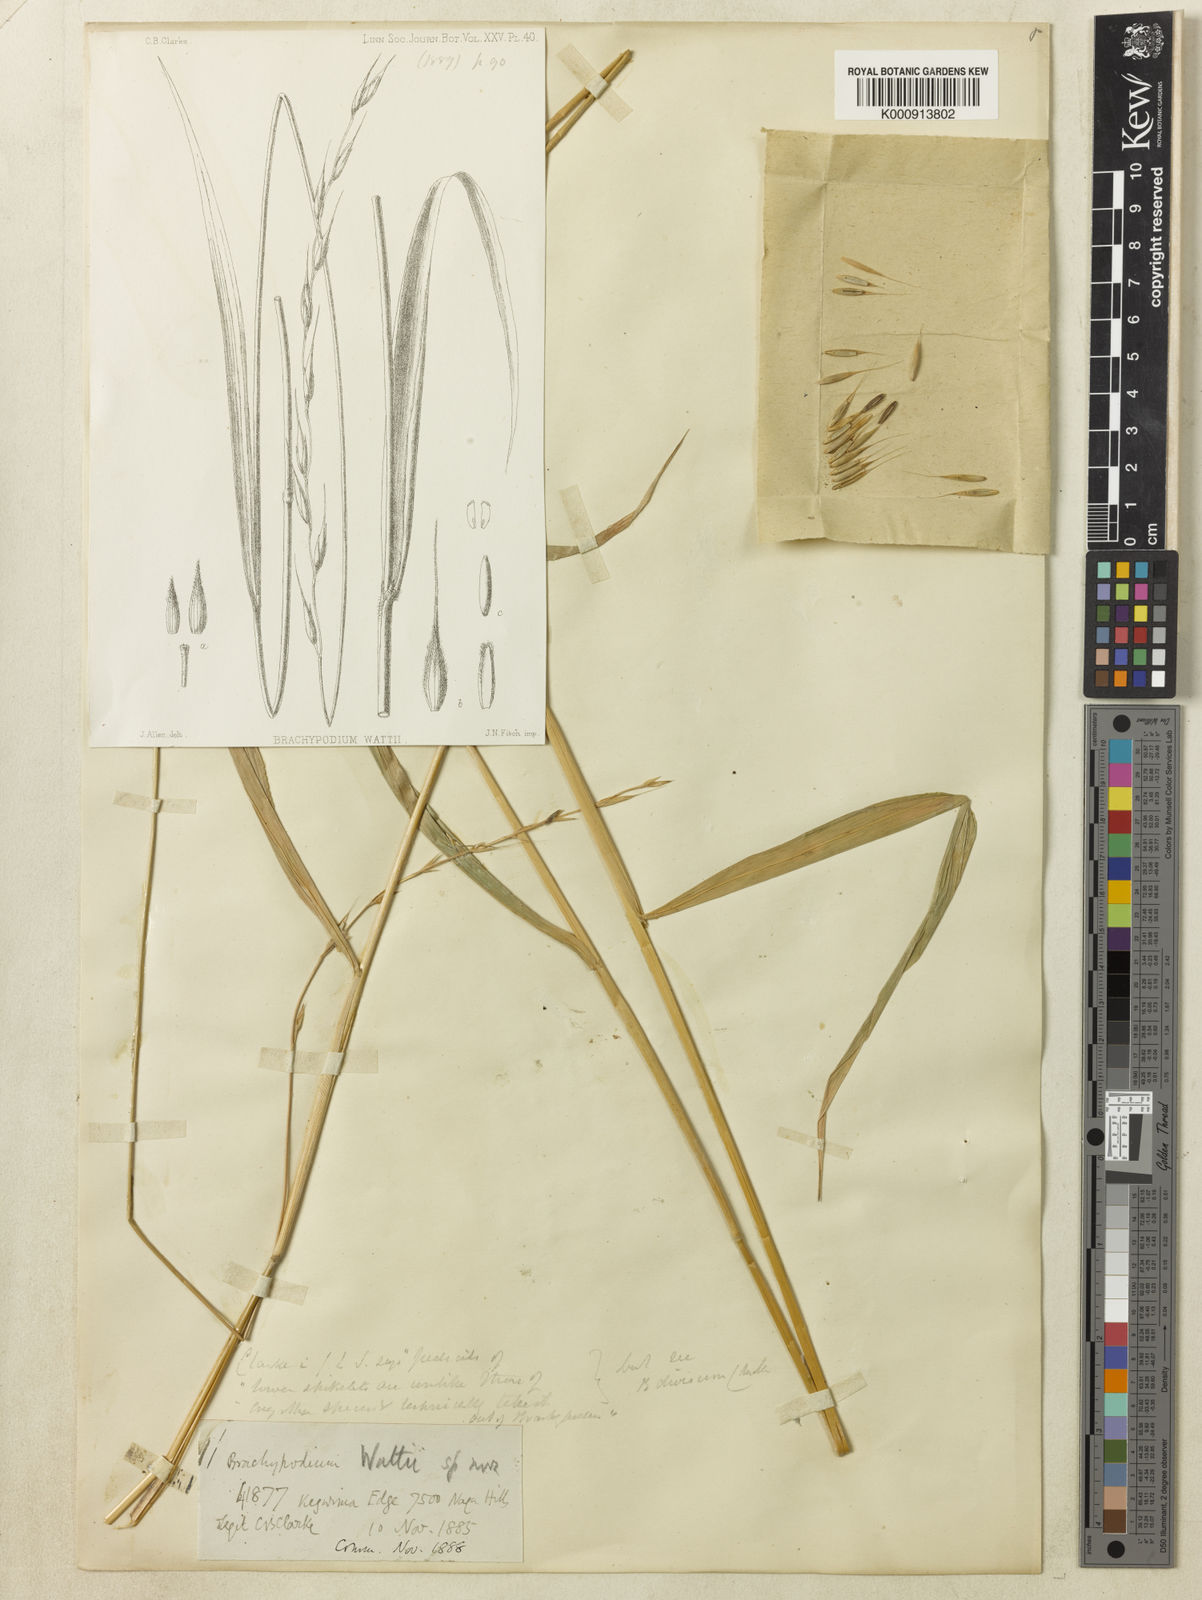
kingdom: Plantae
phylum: Tracheophyta
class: Liliopsida
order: Poales
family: Poaceae
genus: Brachypodium
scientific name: Brachypodium sylvaticum
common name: False-brome
